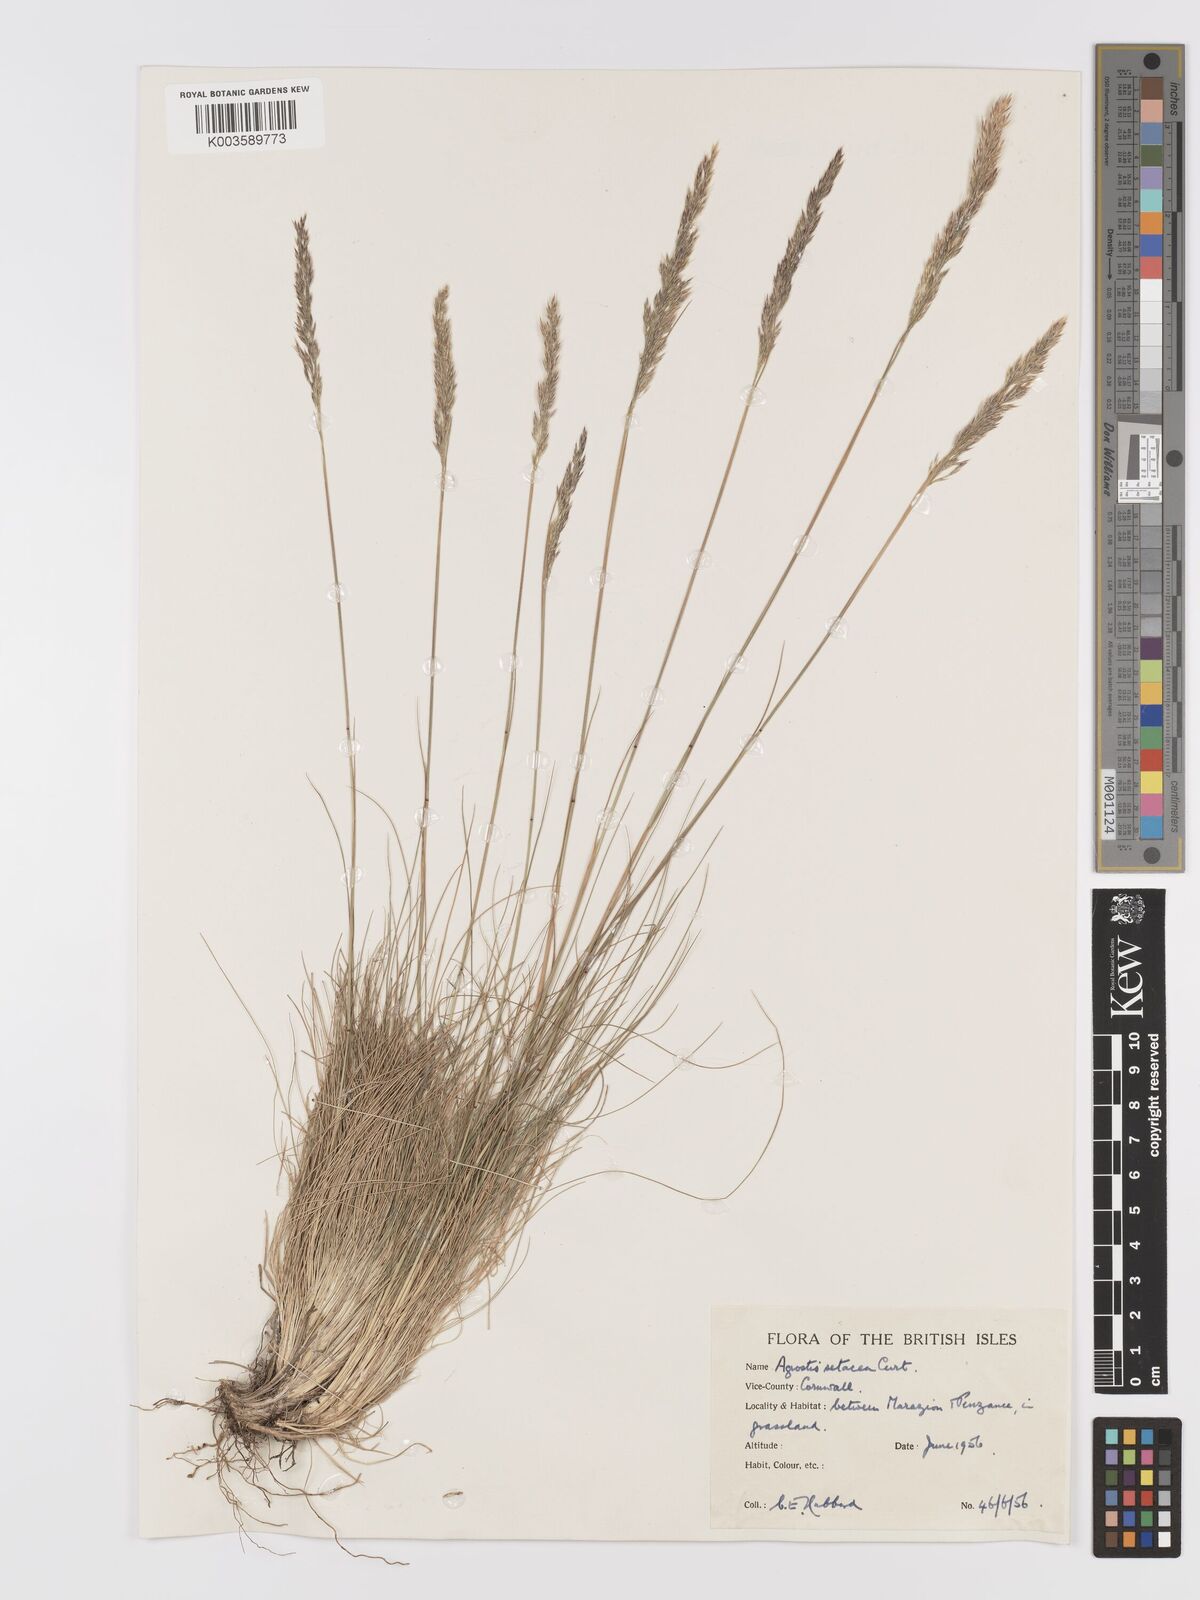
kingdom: Plantae
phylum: Tracheophyta
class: Liliopsida
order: Poales
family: Poaceae
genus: Alpagrostis
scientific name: Alpagrostis setacea
